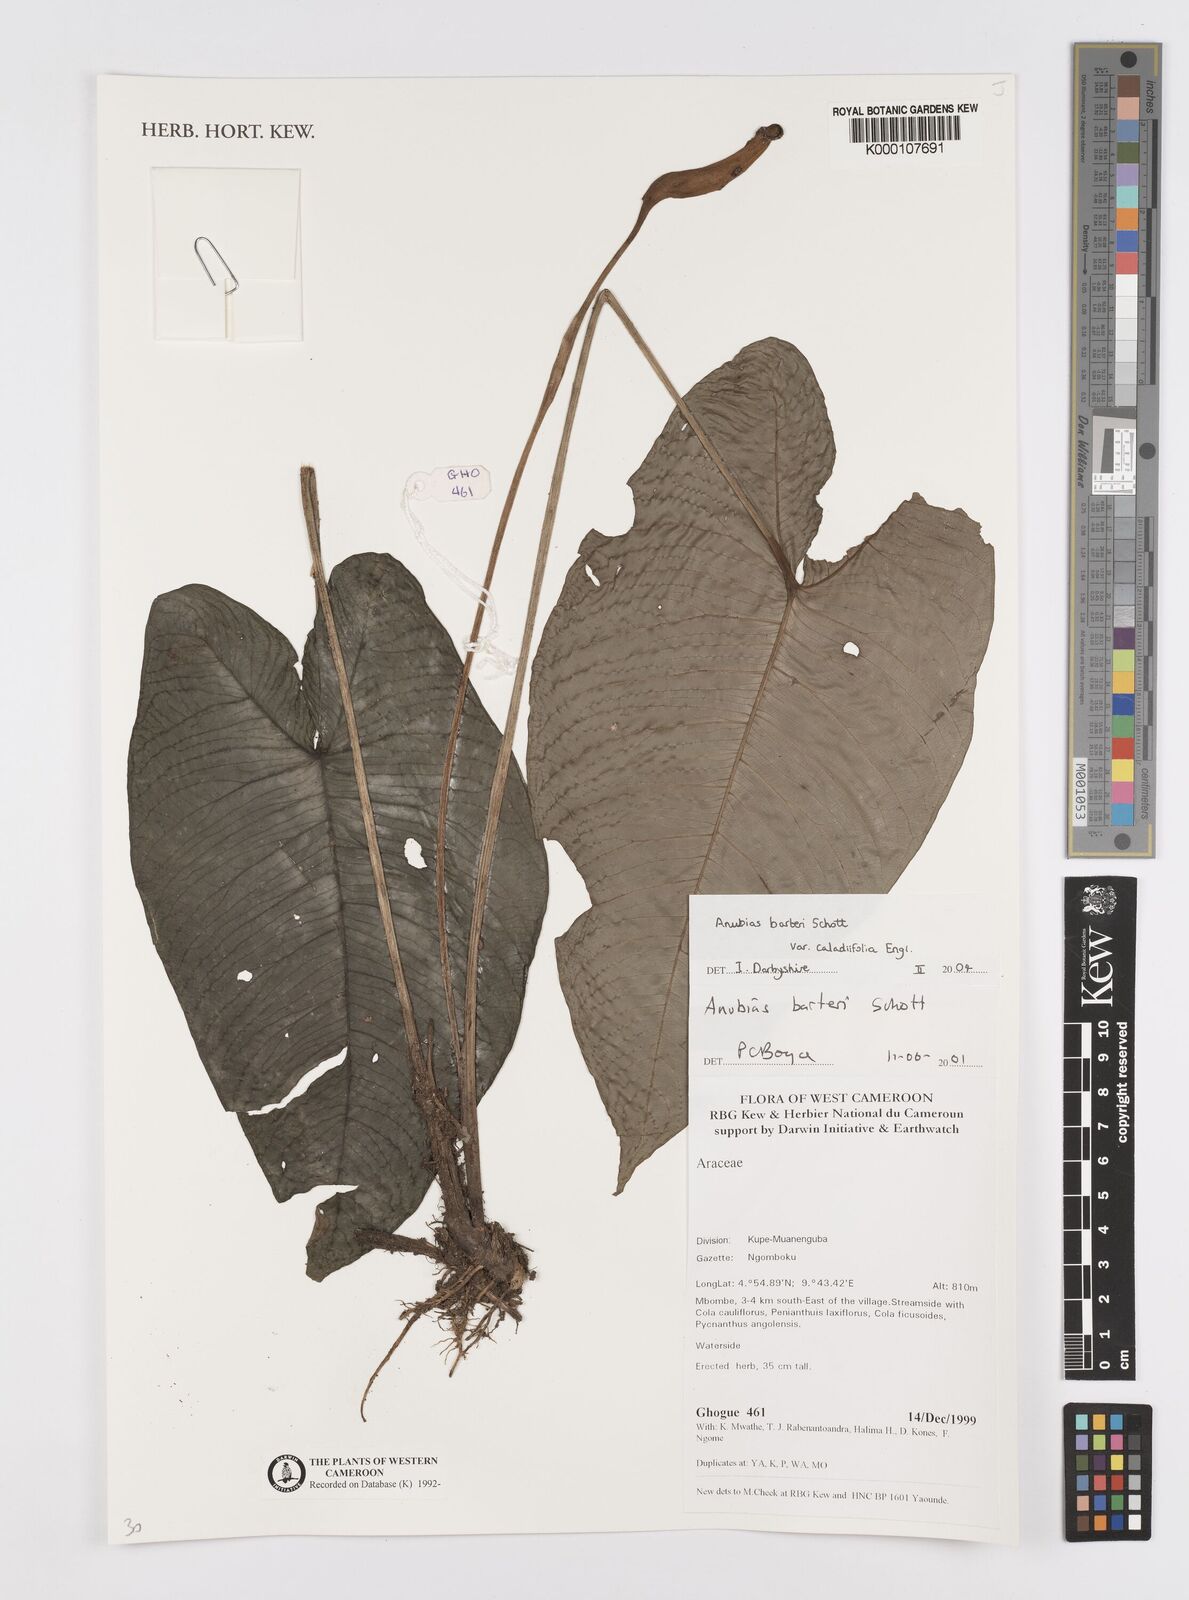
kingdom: Plantae
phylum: Tracheophyta
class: Liliopsida
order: Alismatales
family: Araceae
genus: Anubias
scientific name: Anubias barteri
